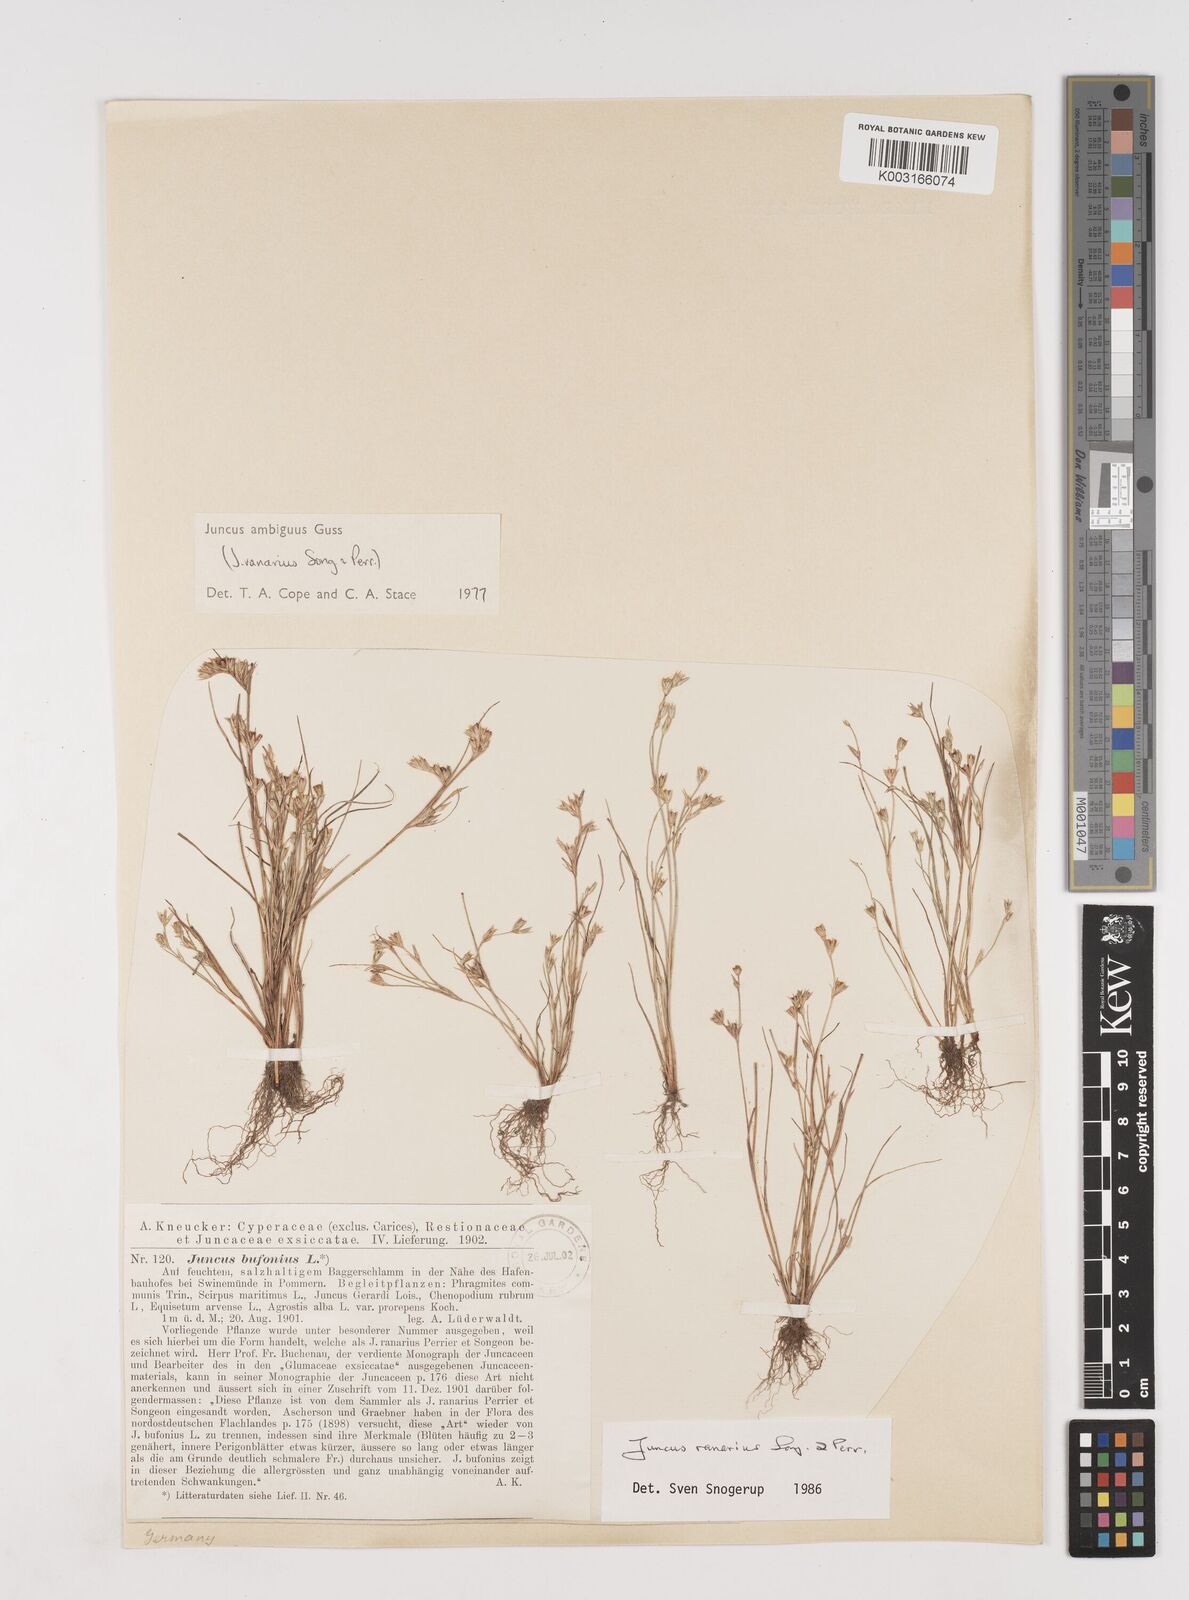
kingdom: Plantae
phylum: Tracheophyta
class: Liliopsida
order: Poales
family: Juncaceae
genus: Juncus
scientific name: Juncus hybridus
